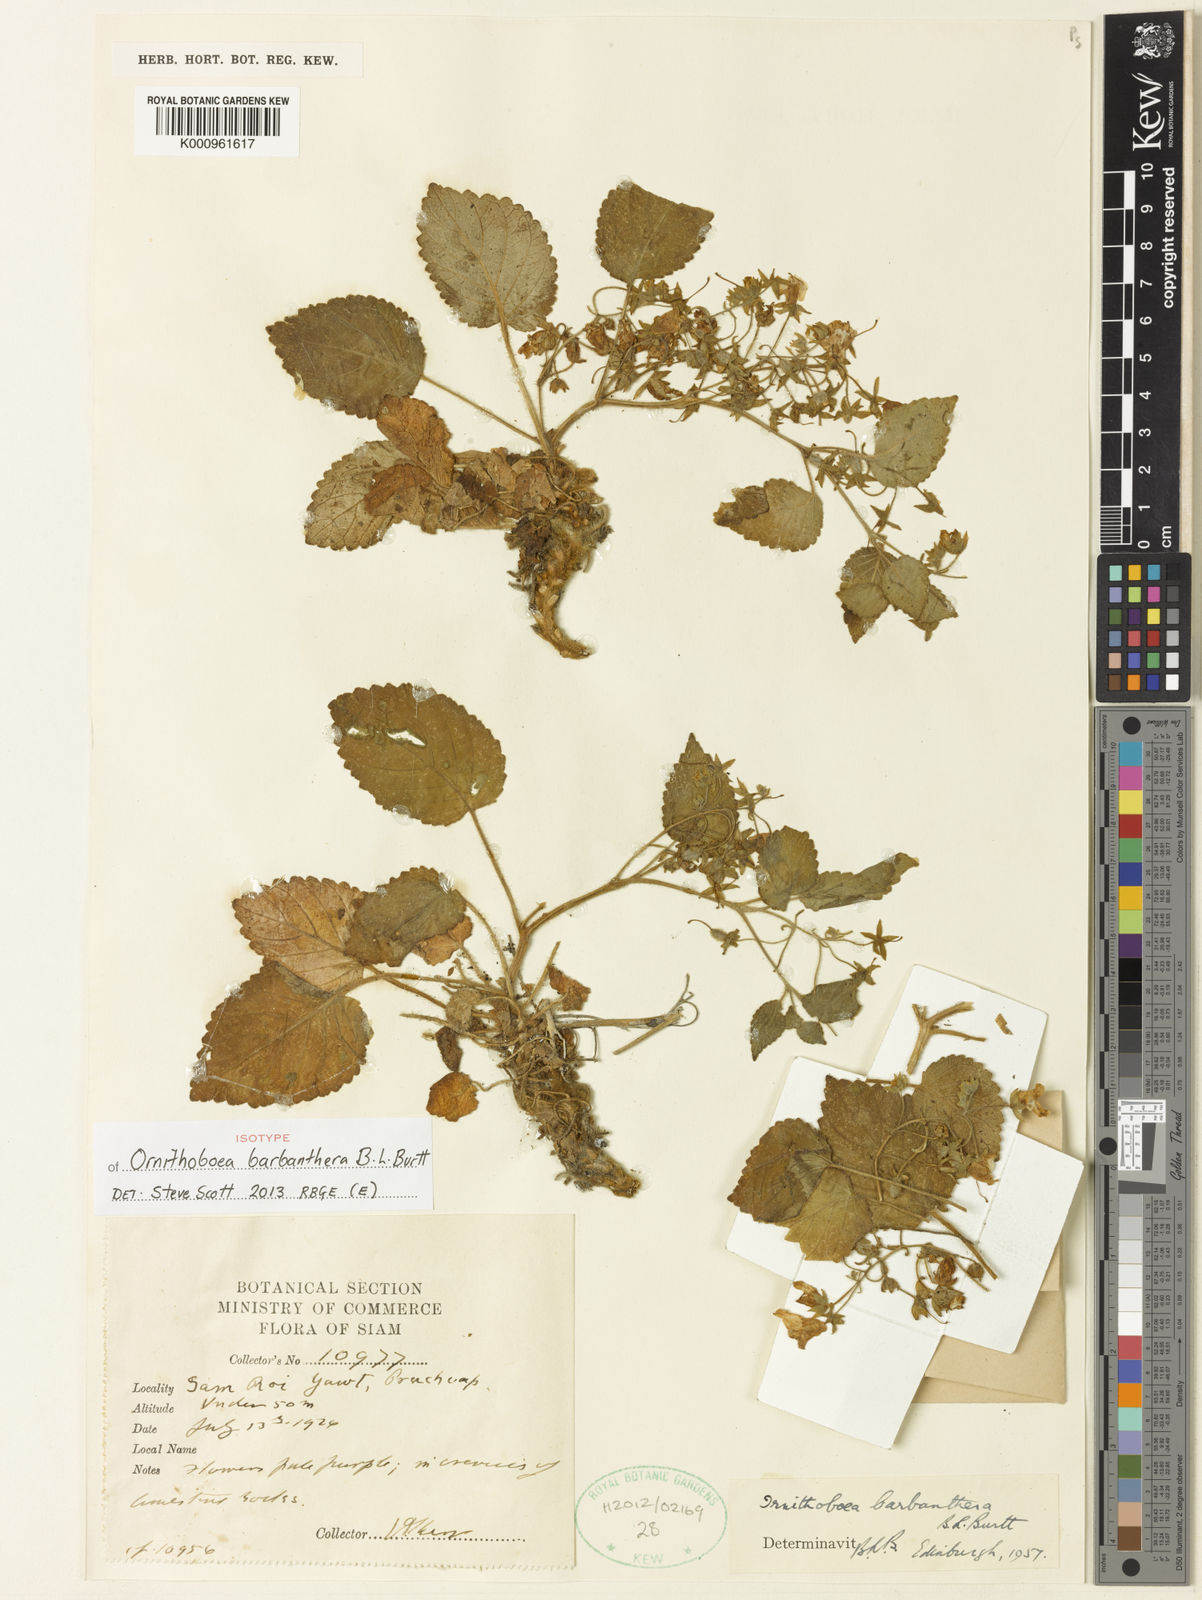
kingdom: Plantae
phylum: Tracheophyta
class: Magnoliopsida
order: Lamiales
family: Gesneriaceae
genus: Ornithoboea
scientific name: Ornithoboea barbanthera
